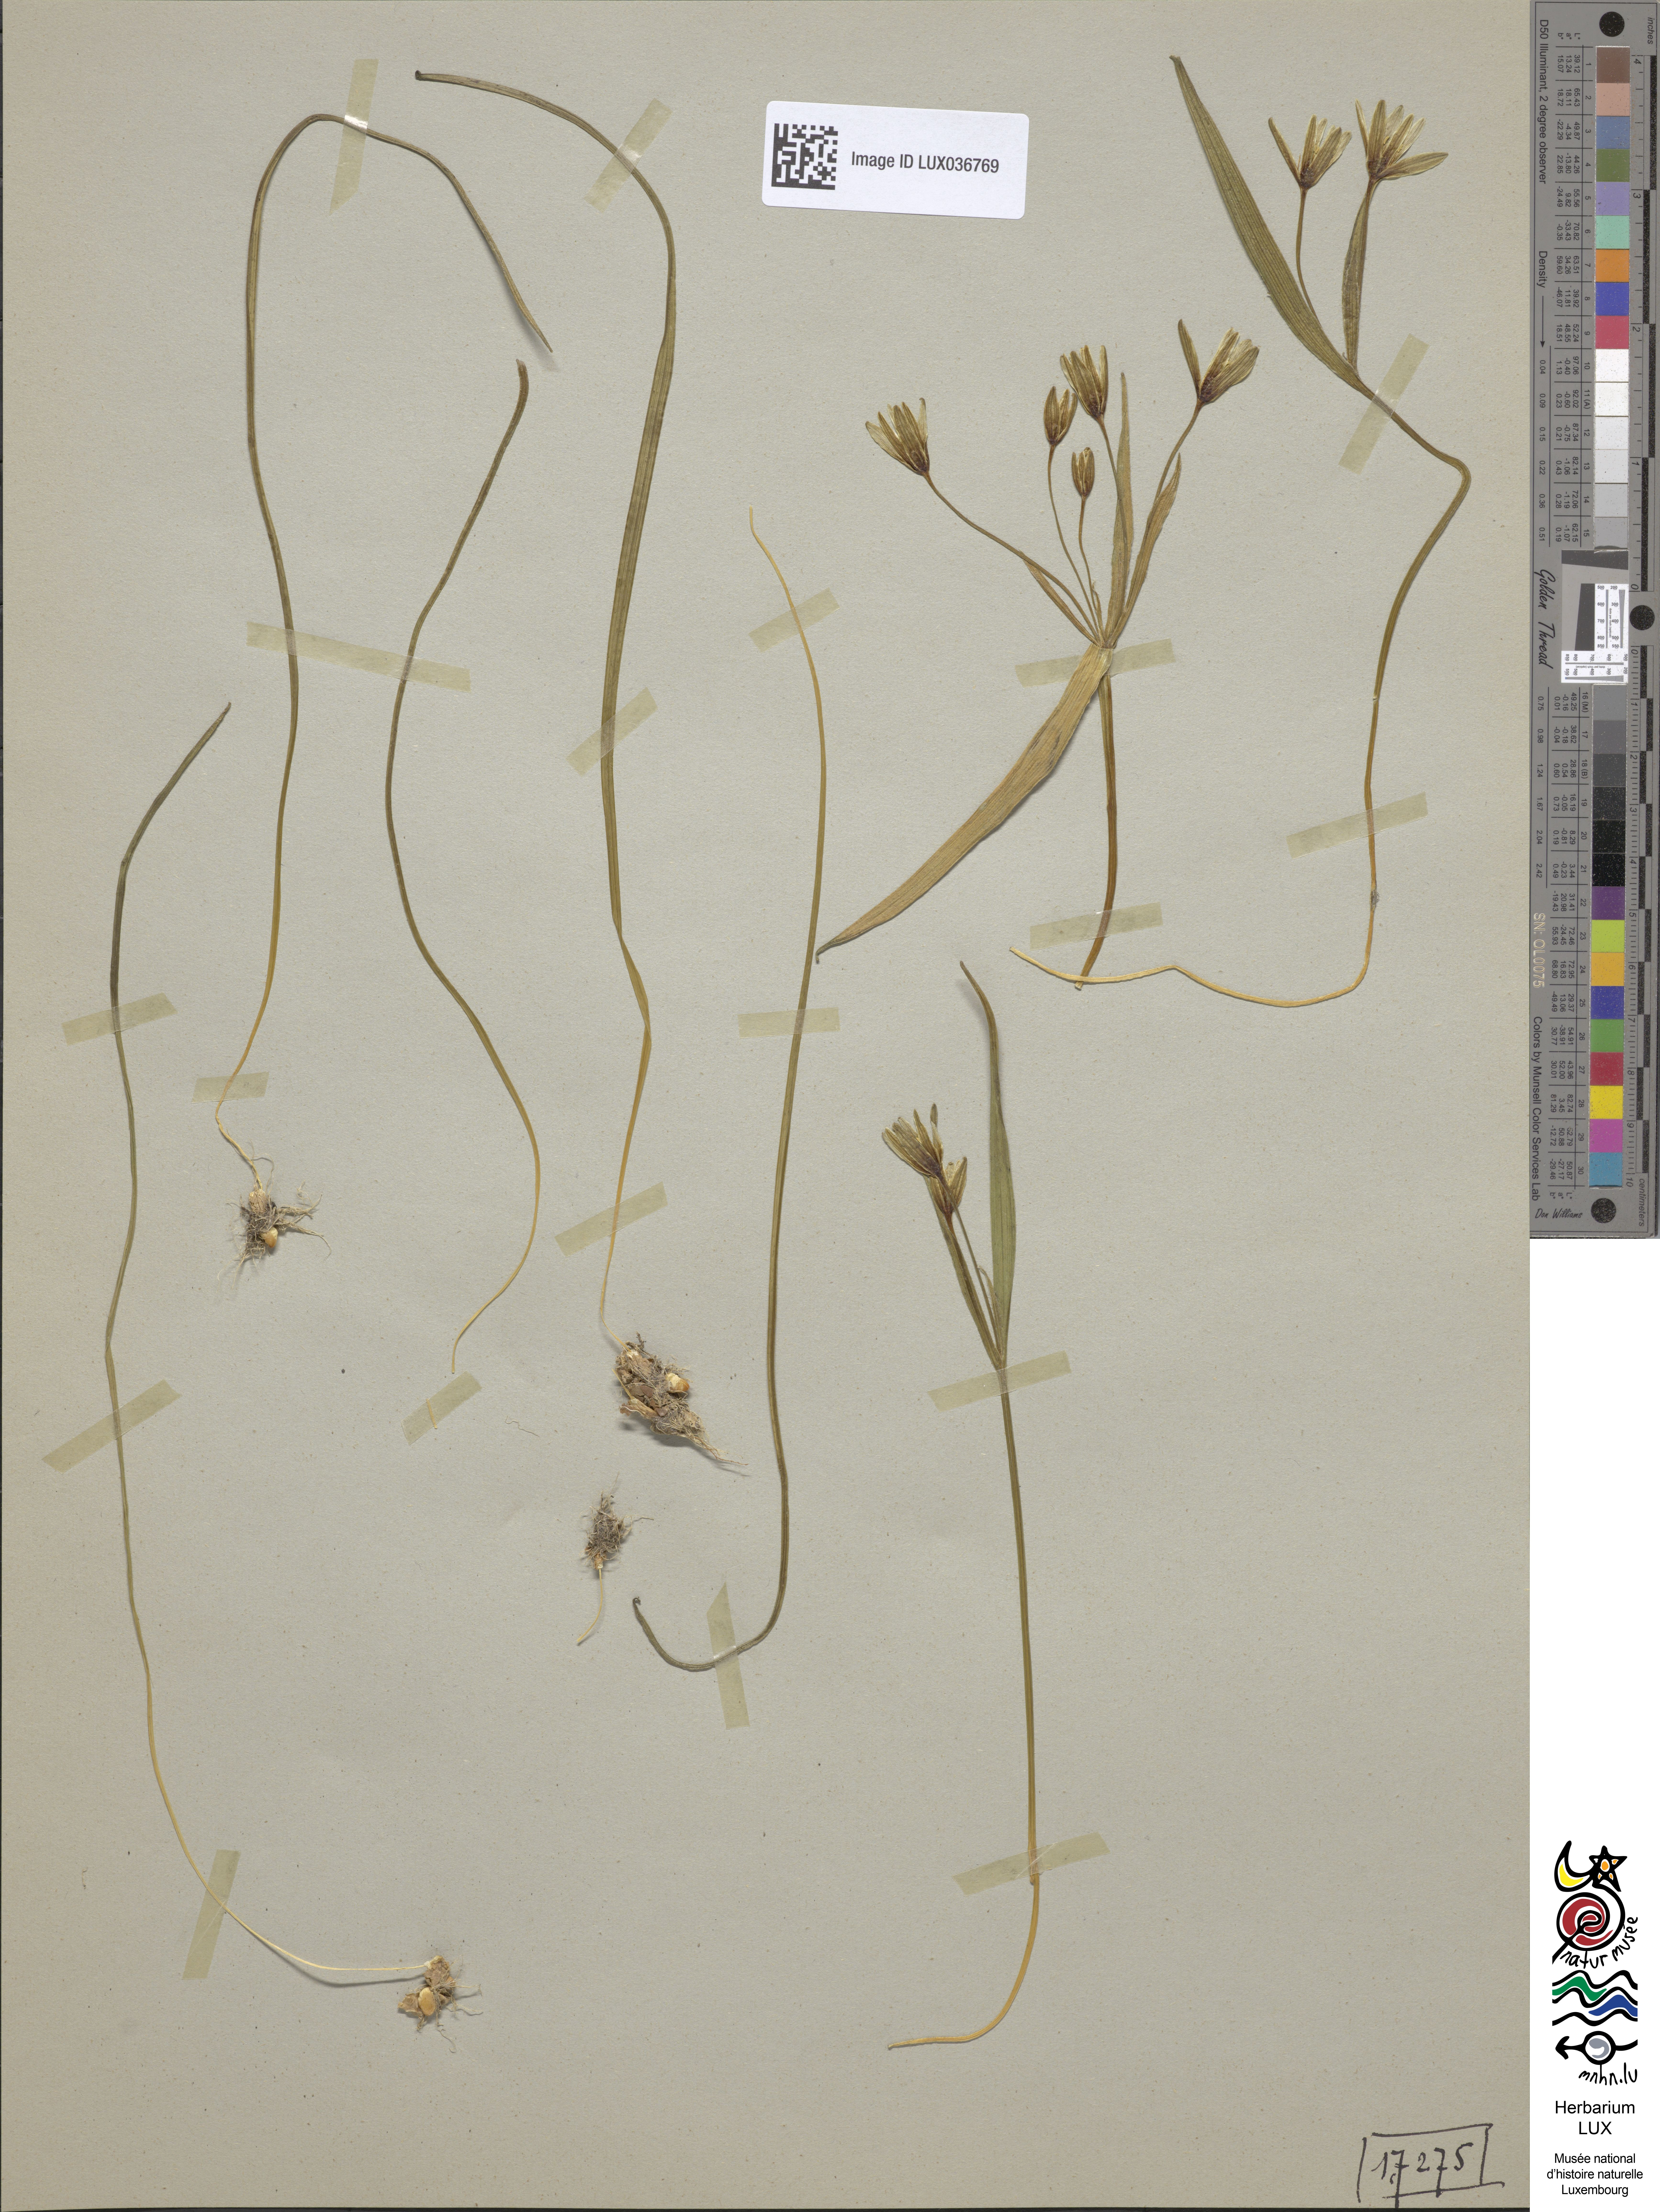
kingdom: Plantae
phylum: Tracheophyta
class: Liliopsida
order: Liliales
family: Liliaceae
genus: Gagea
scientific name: Gagea pratensis
